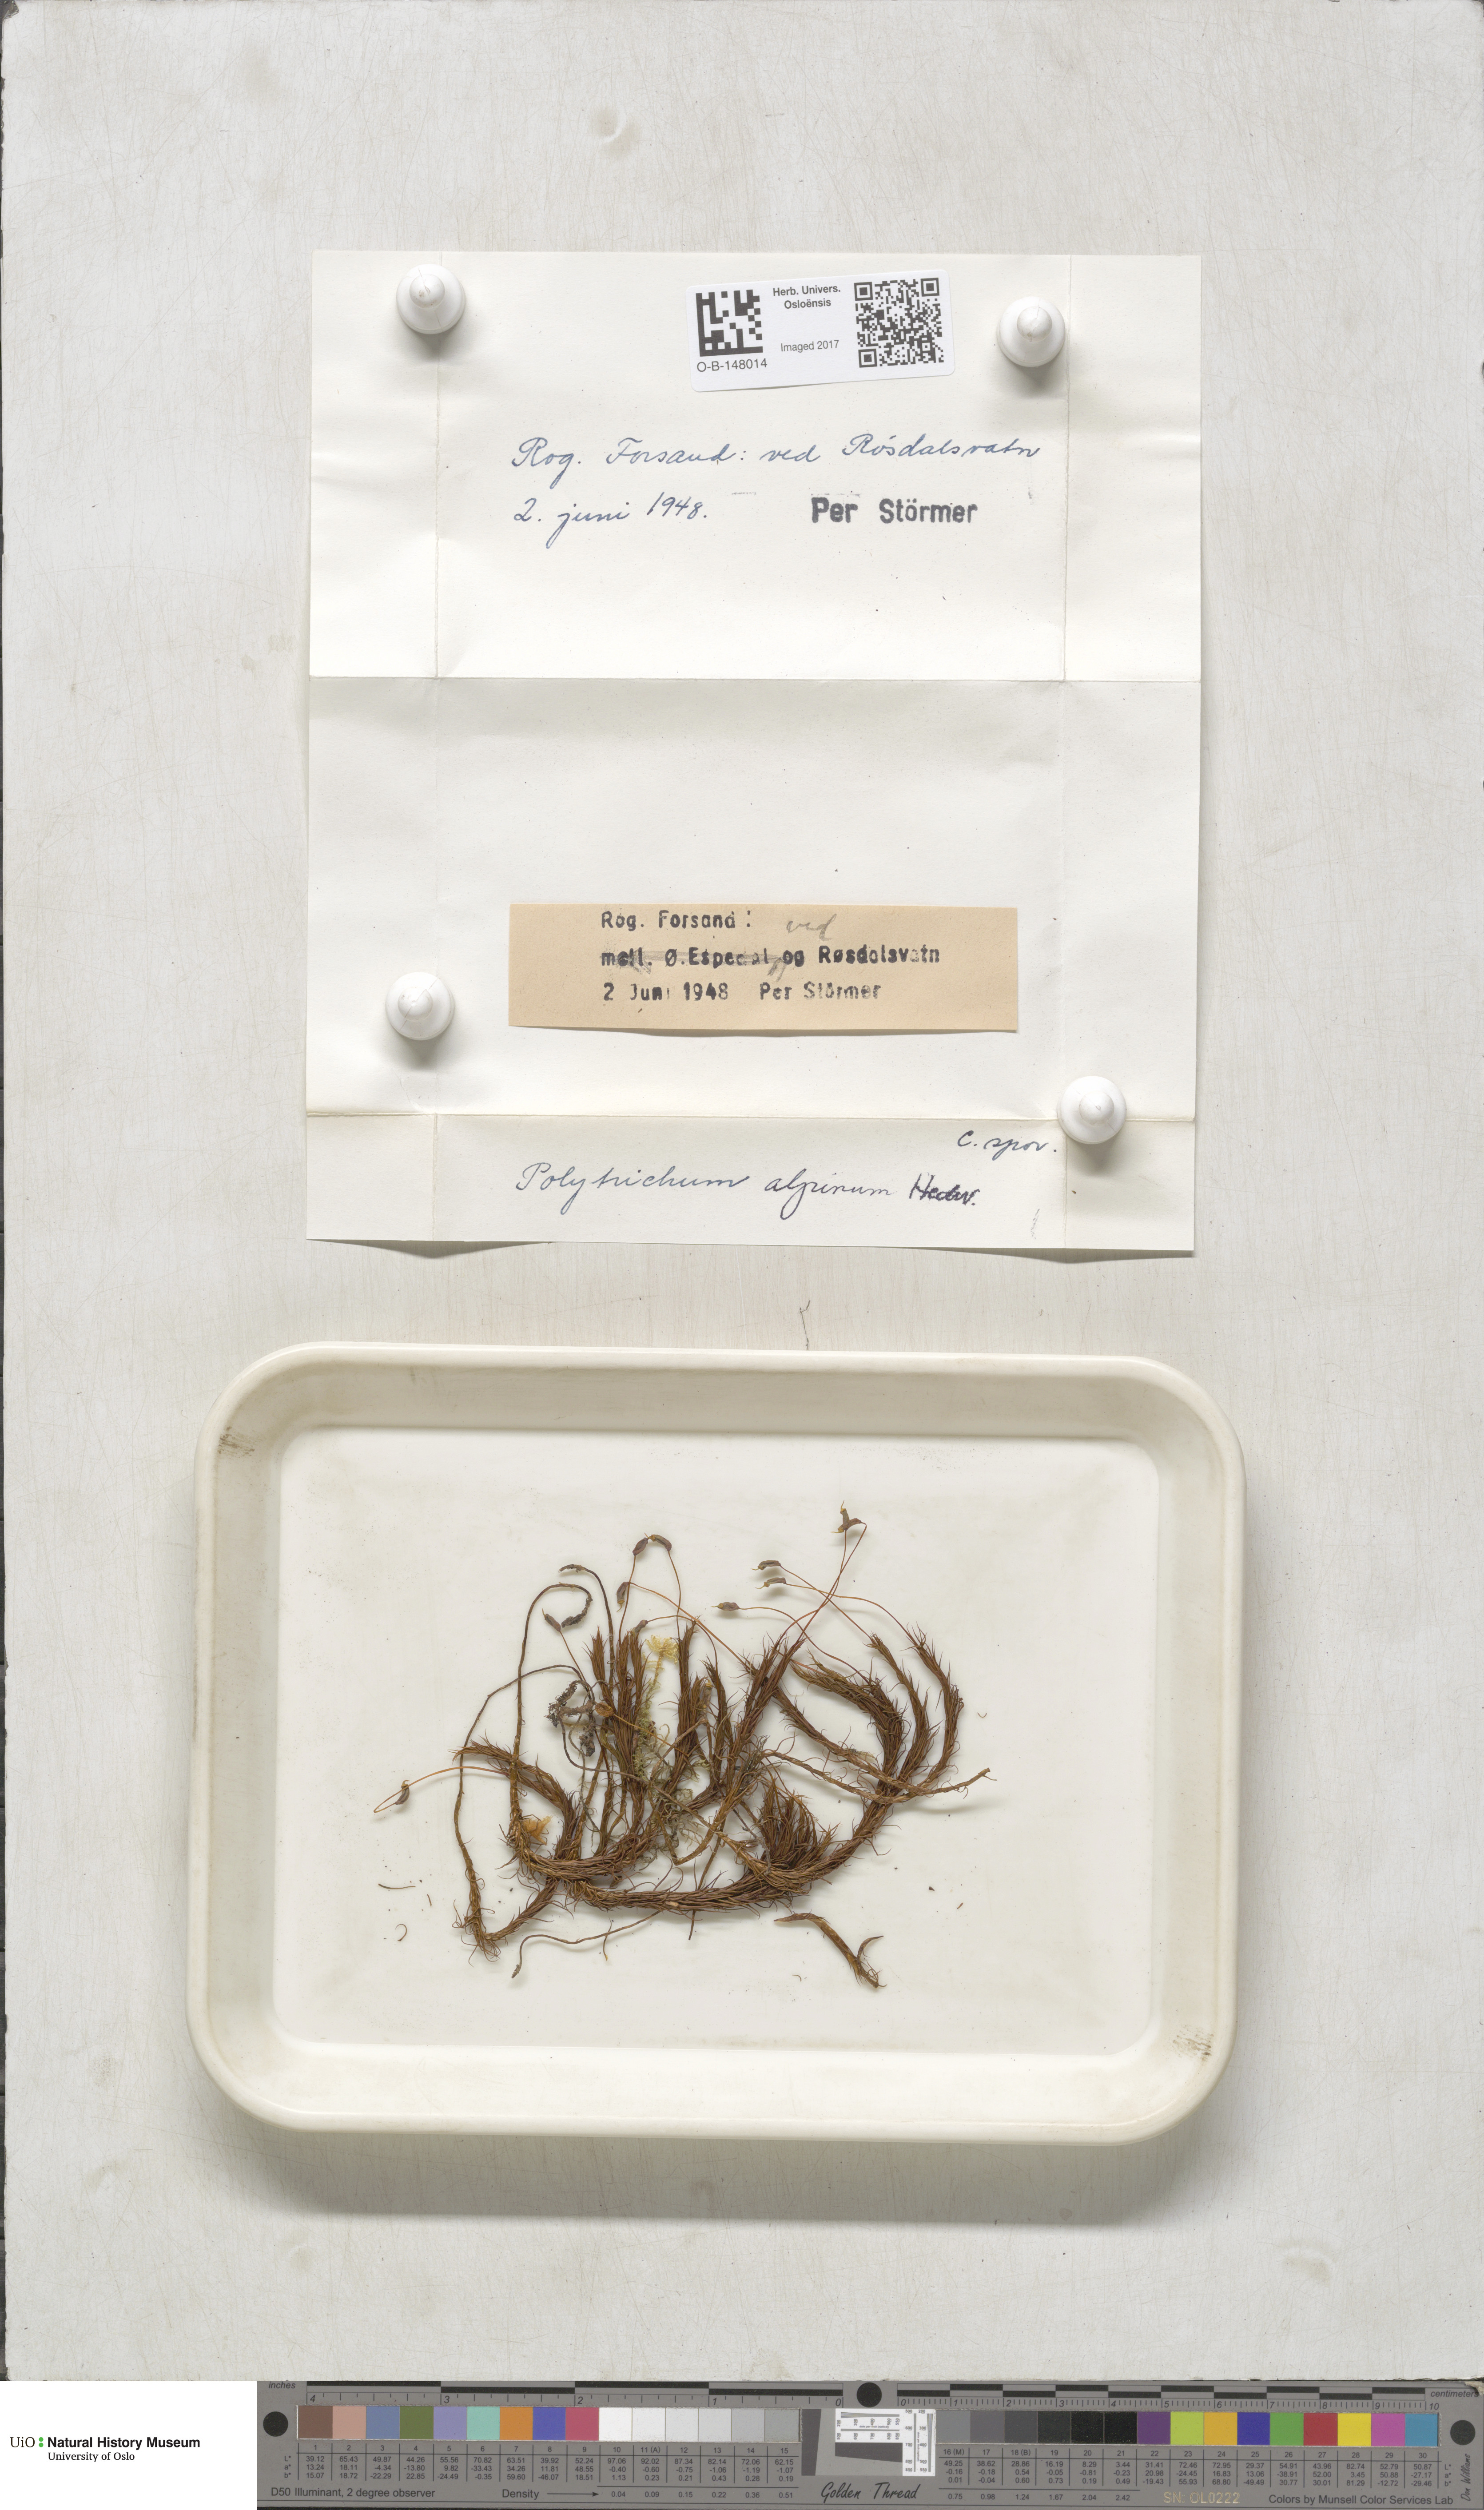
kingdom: Plantae
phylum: Bryophyta
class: Polytrichopsida
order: Polytrichales
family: Polytrichaceae
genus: Polytrichastrum
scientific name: Polytrichastrum alpinum
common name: Alpine haircap
